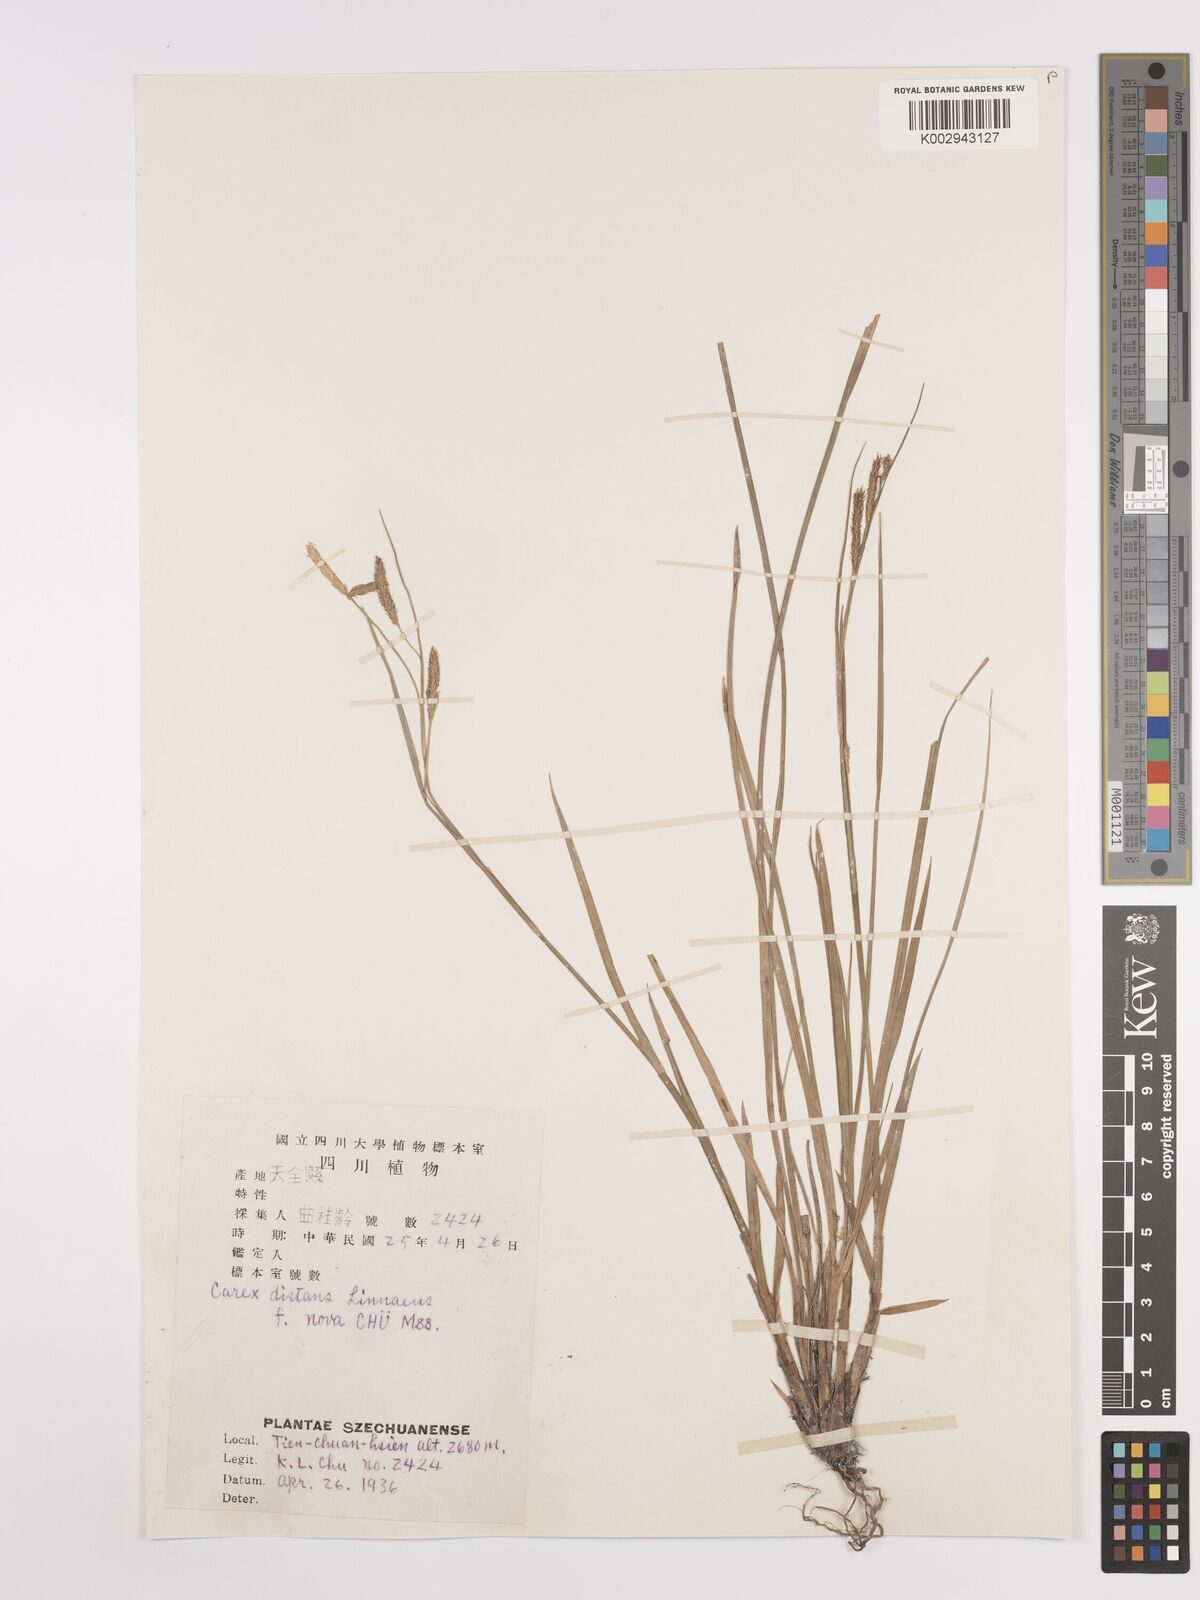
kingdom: Plantae
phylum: Tracheophyta
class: Liliopsida
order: Poales
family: Cyperaceae
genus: Carex
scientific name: Carex
